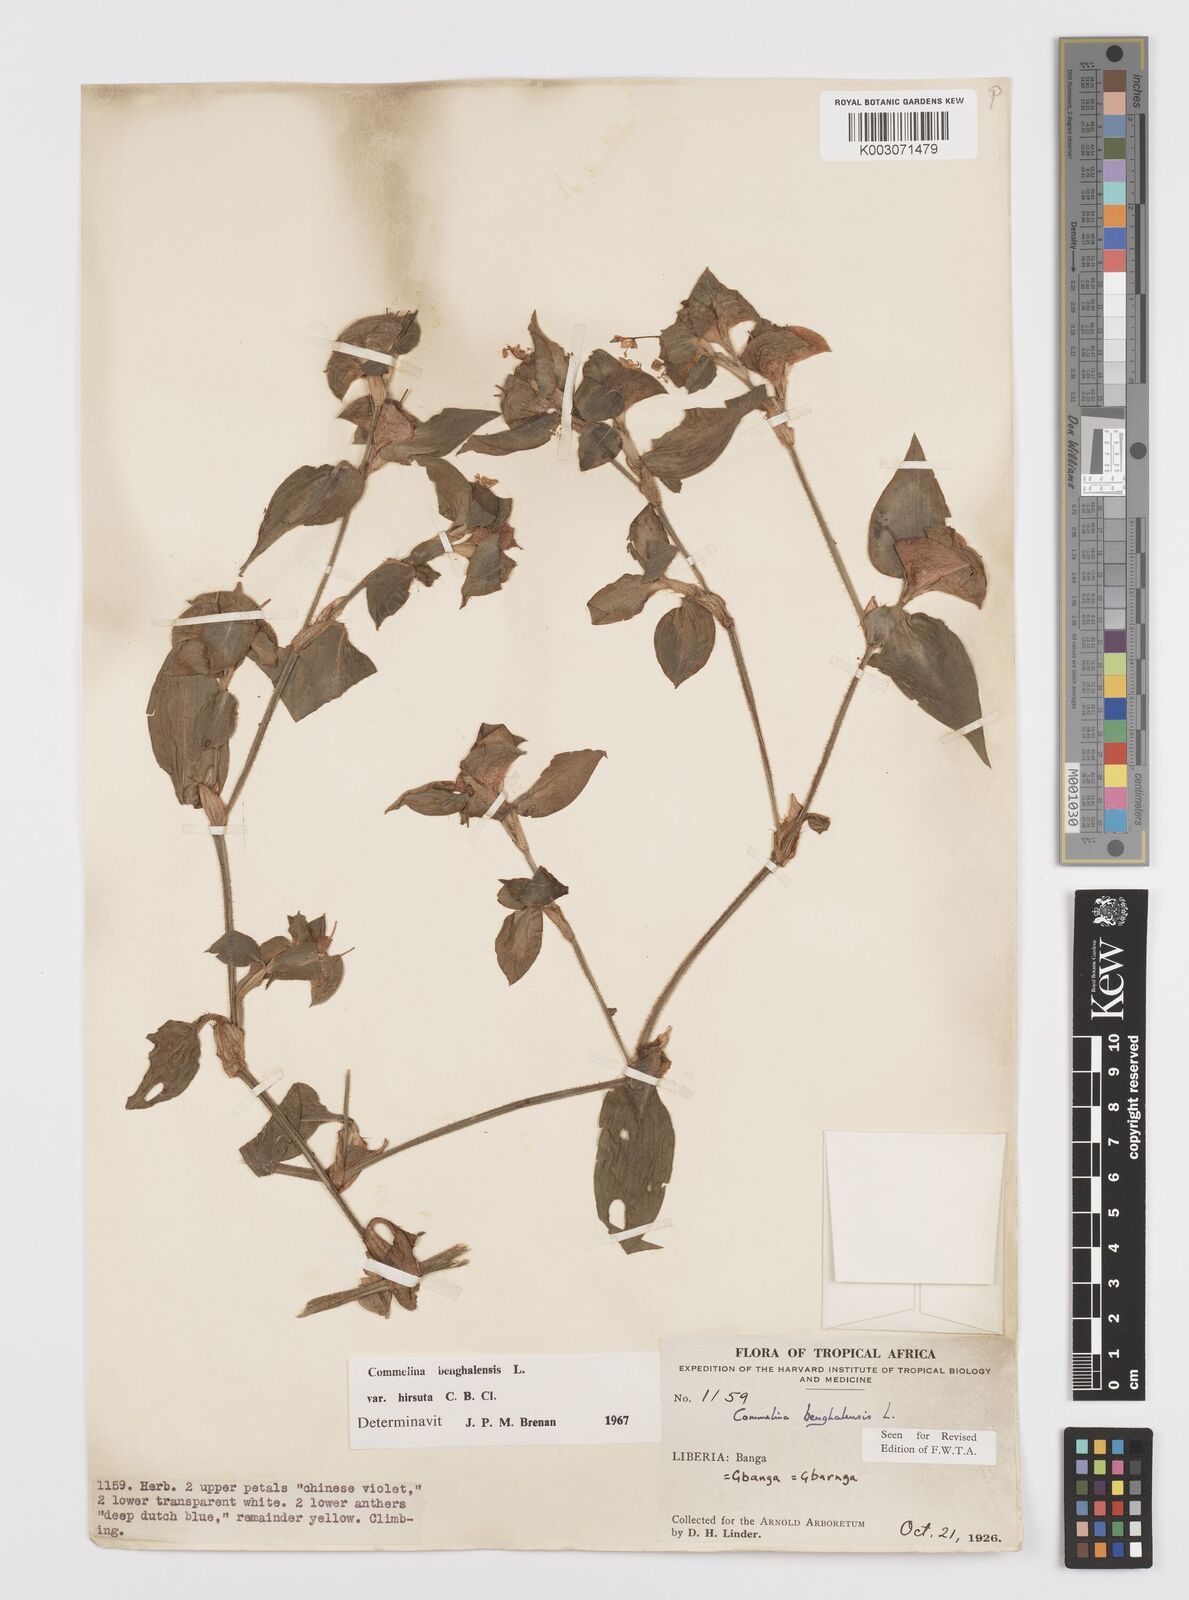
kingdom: Plantae
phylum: Tracheophyta
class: Liliopsida
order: Commelinales
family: Commelinaceae
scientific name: Commelinaceae
